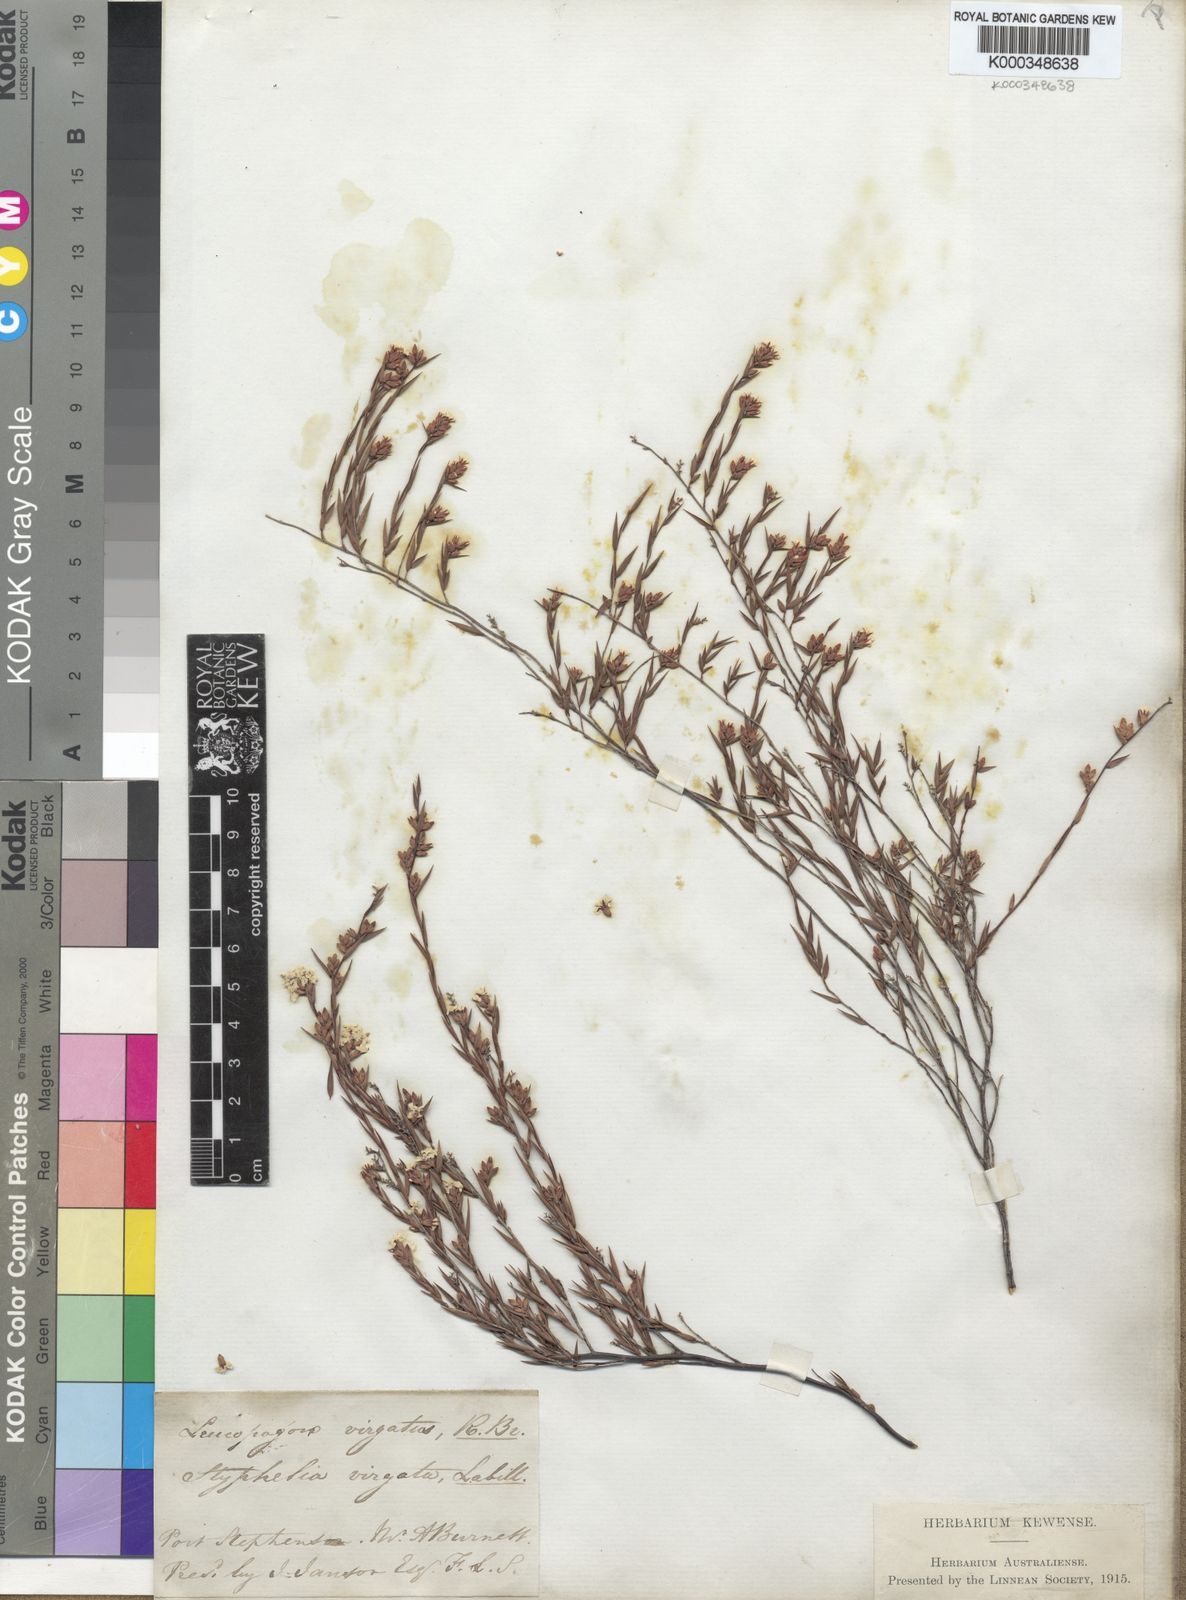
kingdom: Plantae
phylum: Tracheophyta
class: Magnoliopsida
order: Ericales
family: Ericaceae
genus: Leucopogon
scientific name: Leucopogon virgatus
